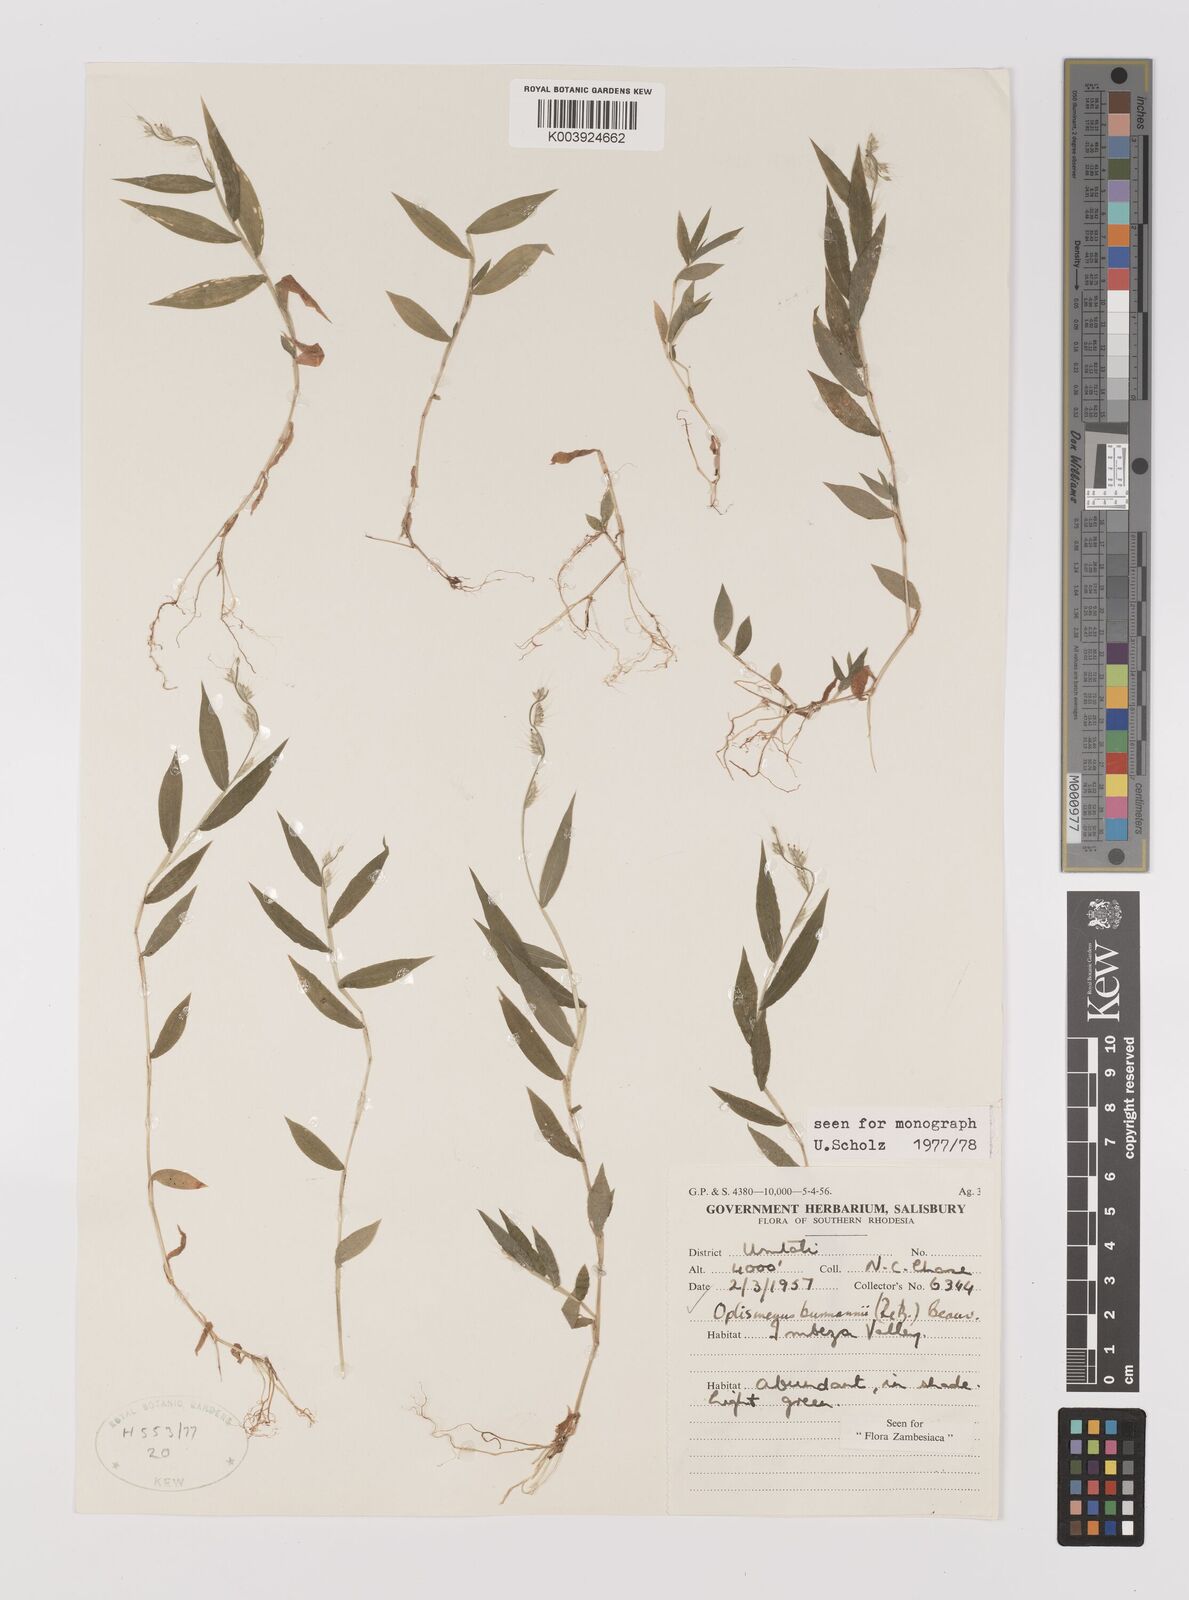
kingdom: Plantae
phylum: Tracheophyta
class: Liliopsida
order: Poales
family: Poaceae
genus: Oplismenus
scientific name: Oplismenus burmanni
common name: Burmann's basketgrass
